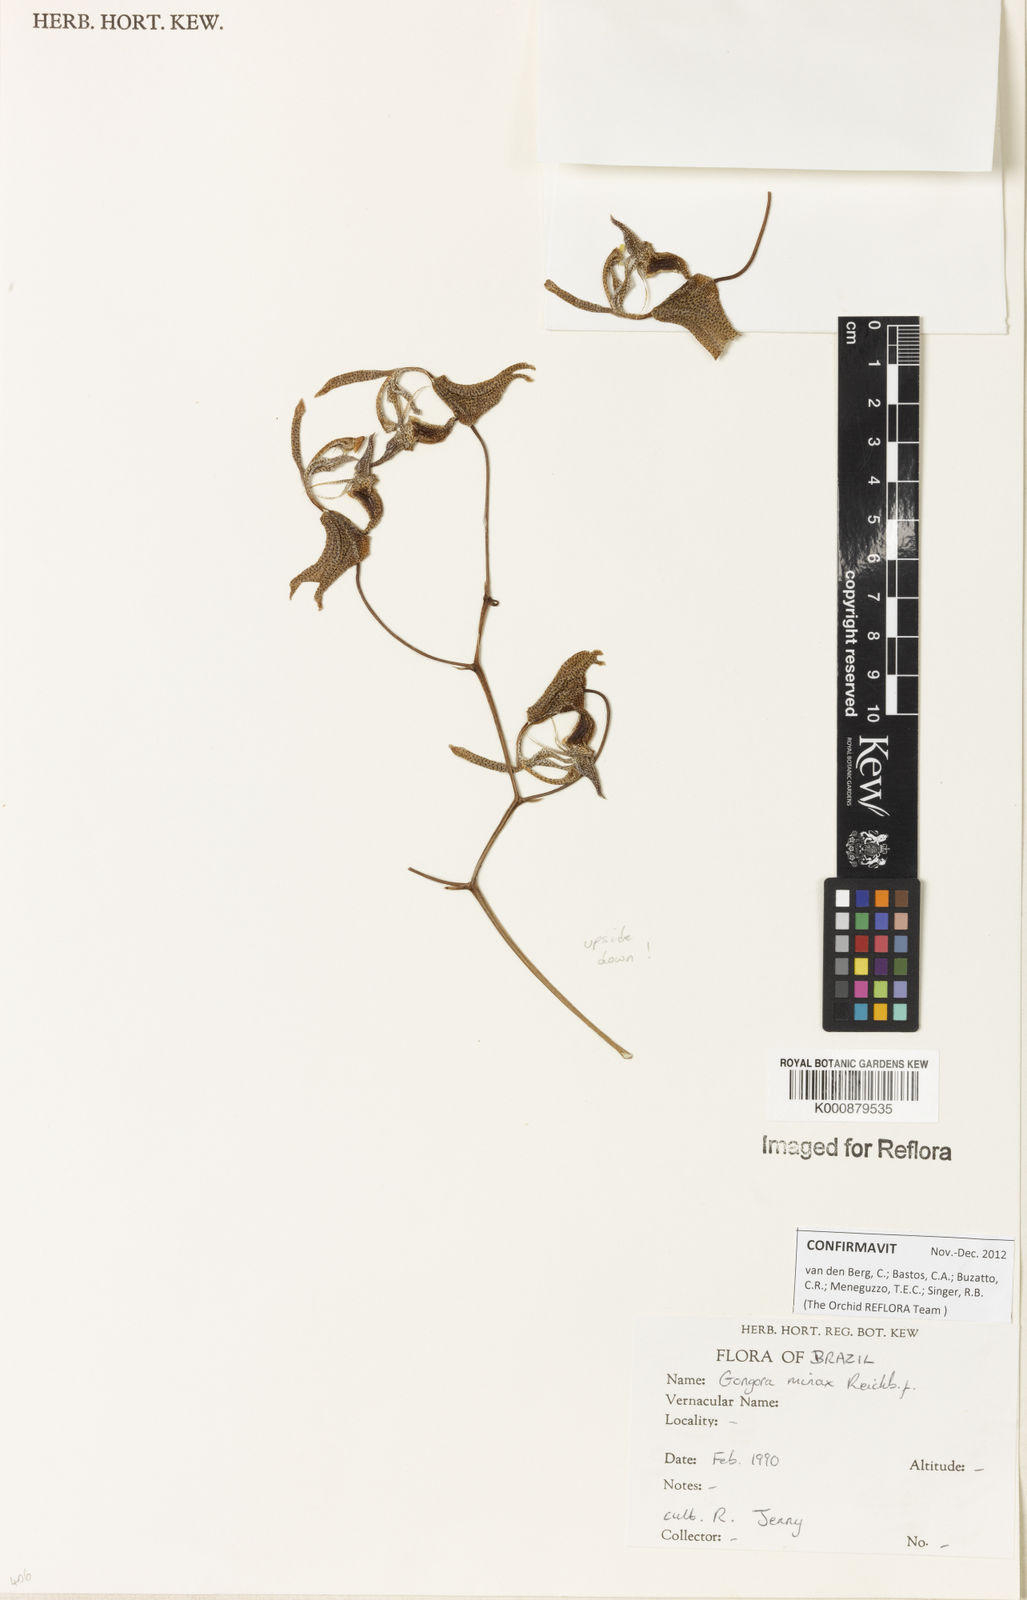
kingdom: Plantae
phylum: Tracheophyta
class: Liliopsida
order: Asparagales
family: Orchidaceae
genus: Gongora
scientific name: Gongora minax
